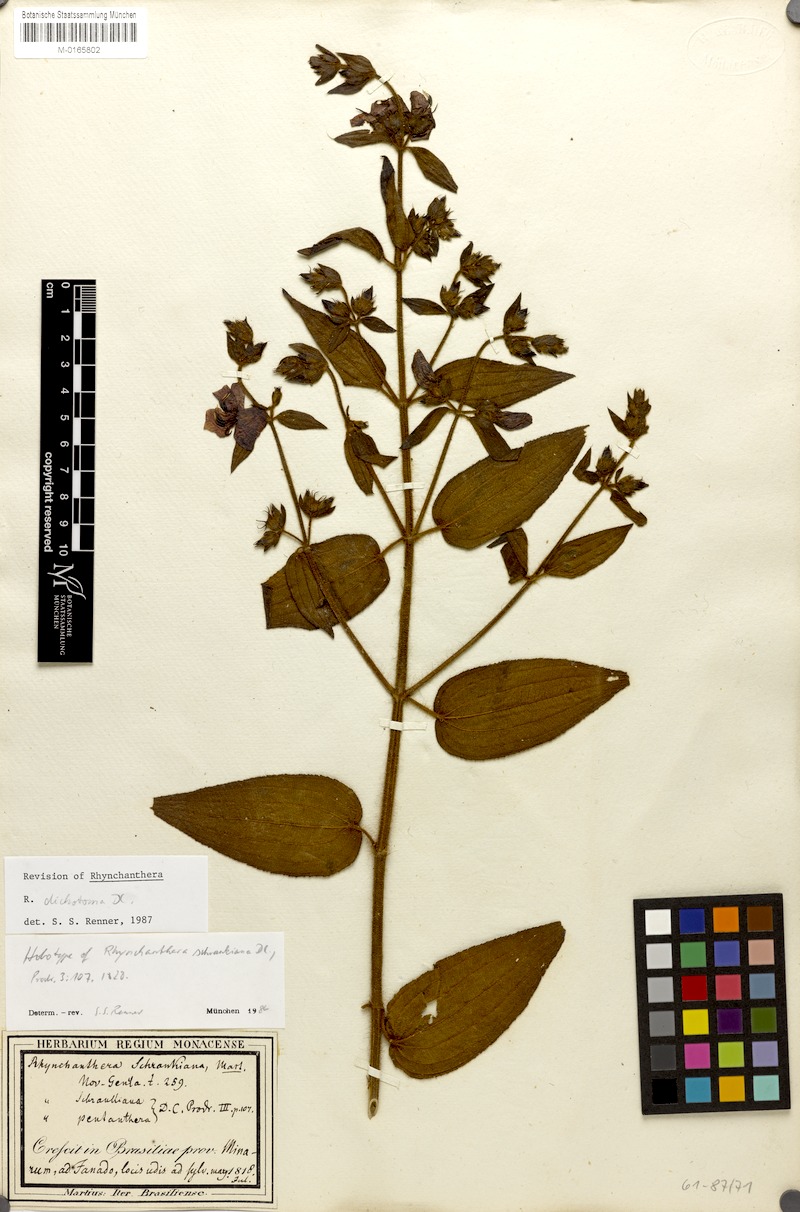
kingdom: Plantae
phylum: Tracheophyta
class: Magnoliopsida
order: Myrtales
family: Melastomataceae
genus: Rhynchanthera
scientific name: Rhynchanthera dichotoma
